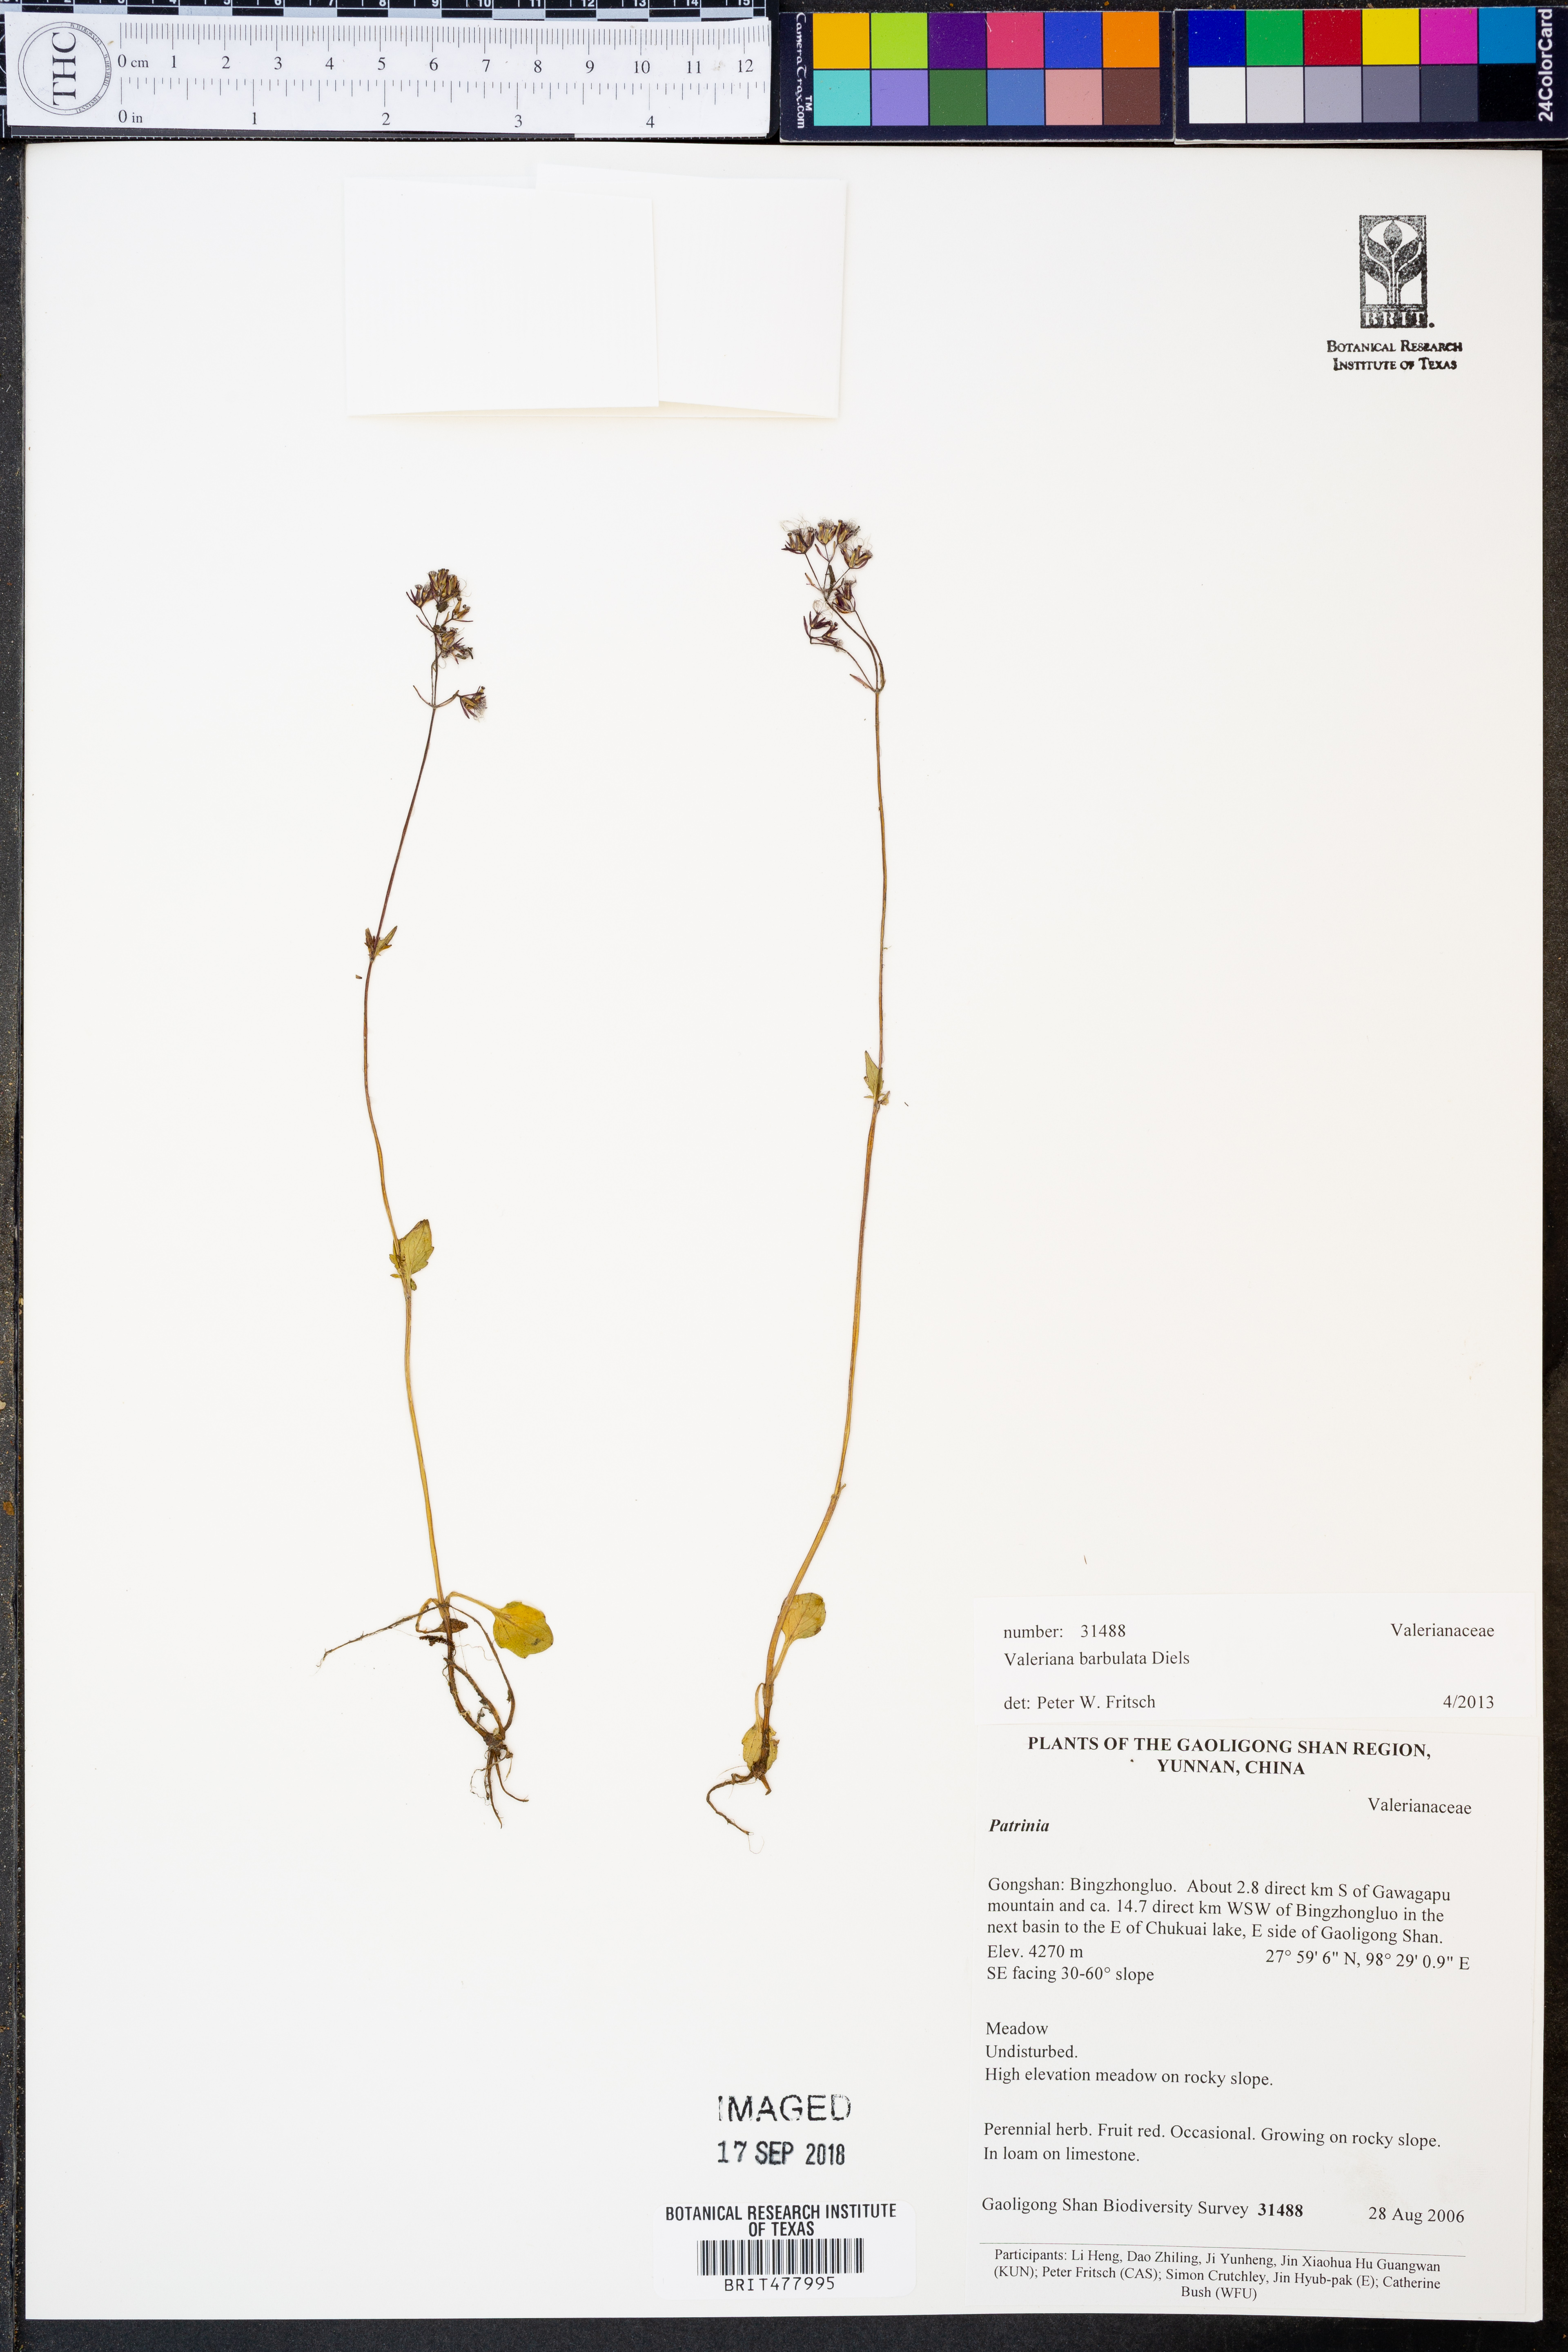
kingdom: Plantae
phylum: Tracheophyta
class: Magnoliopsida
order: Dipsacales
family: Caprifoliaceae
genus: Valeriana
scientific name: Valeriana barbulata
